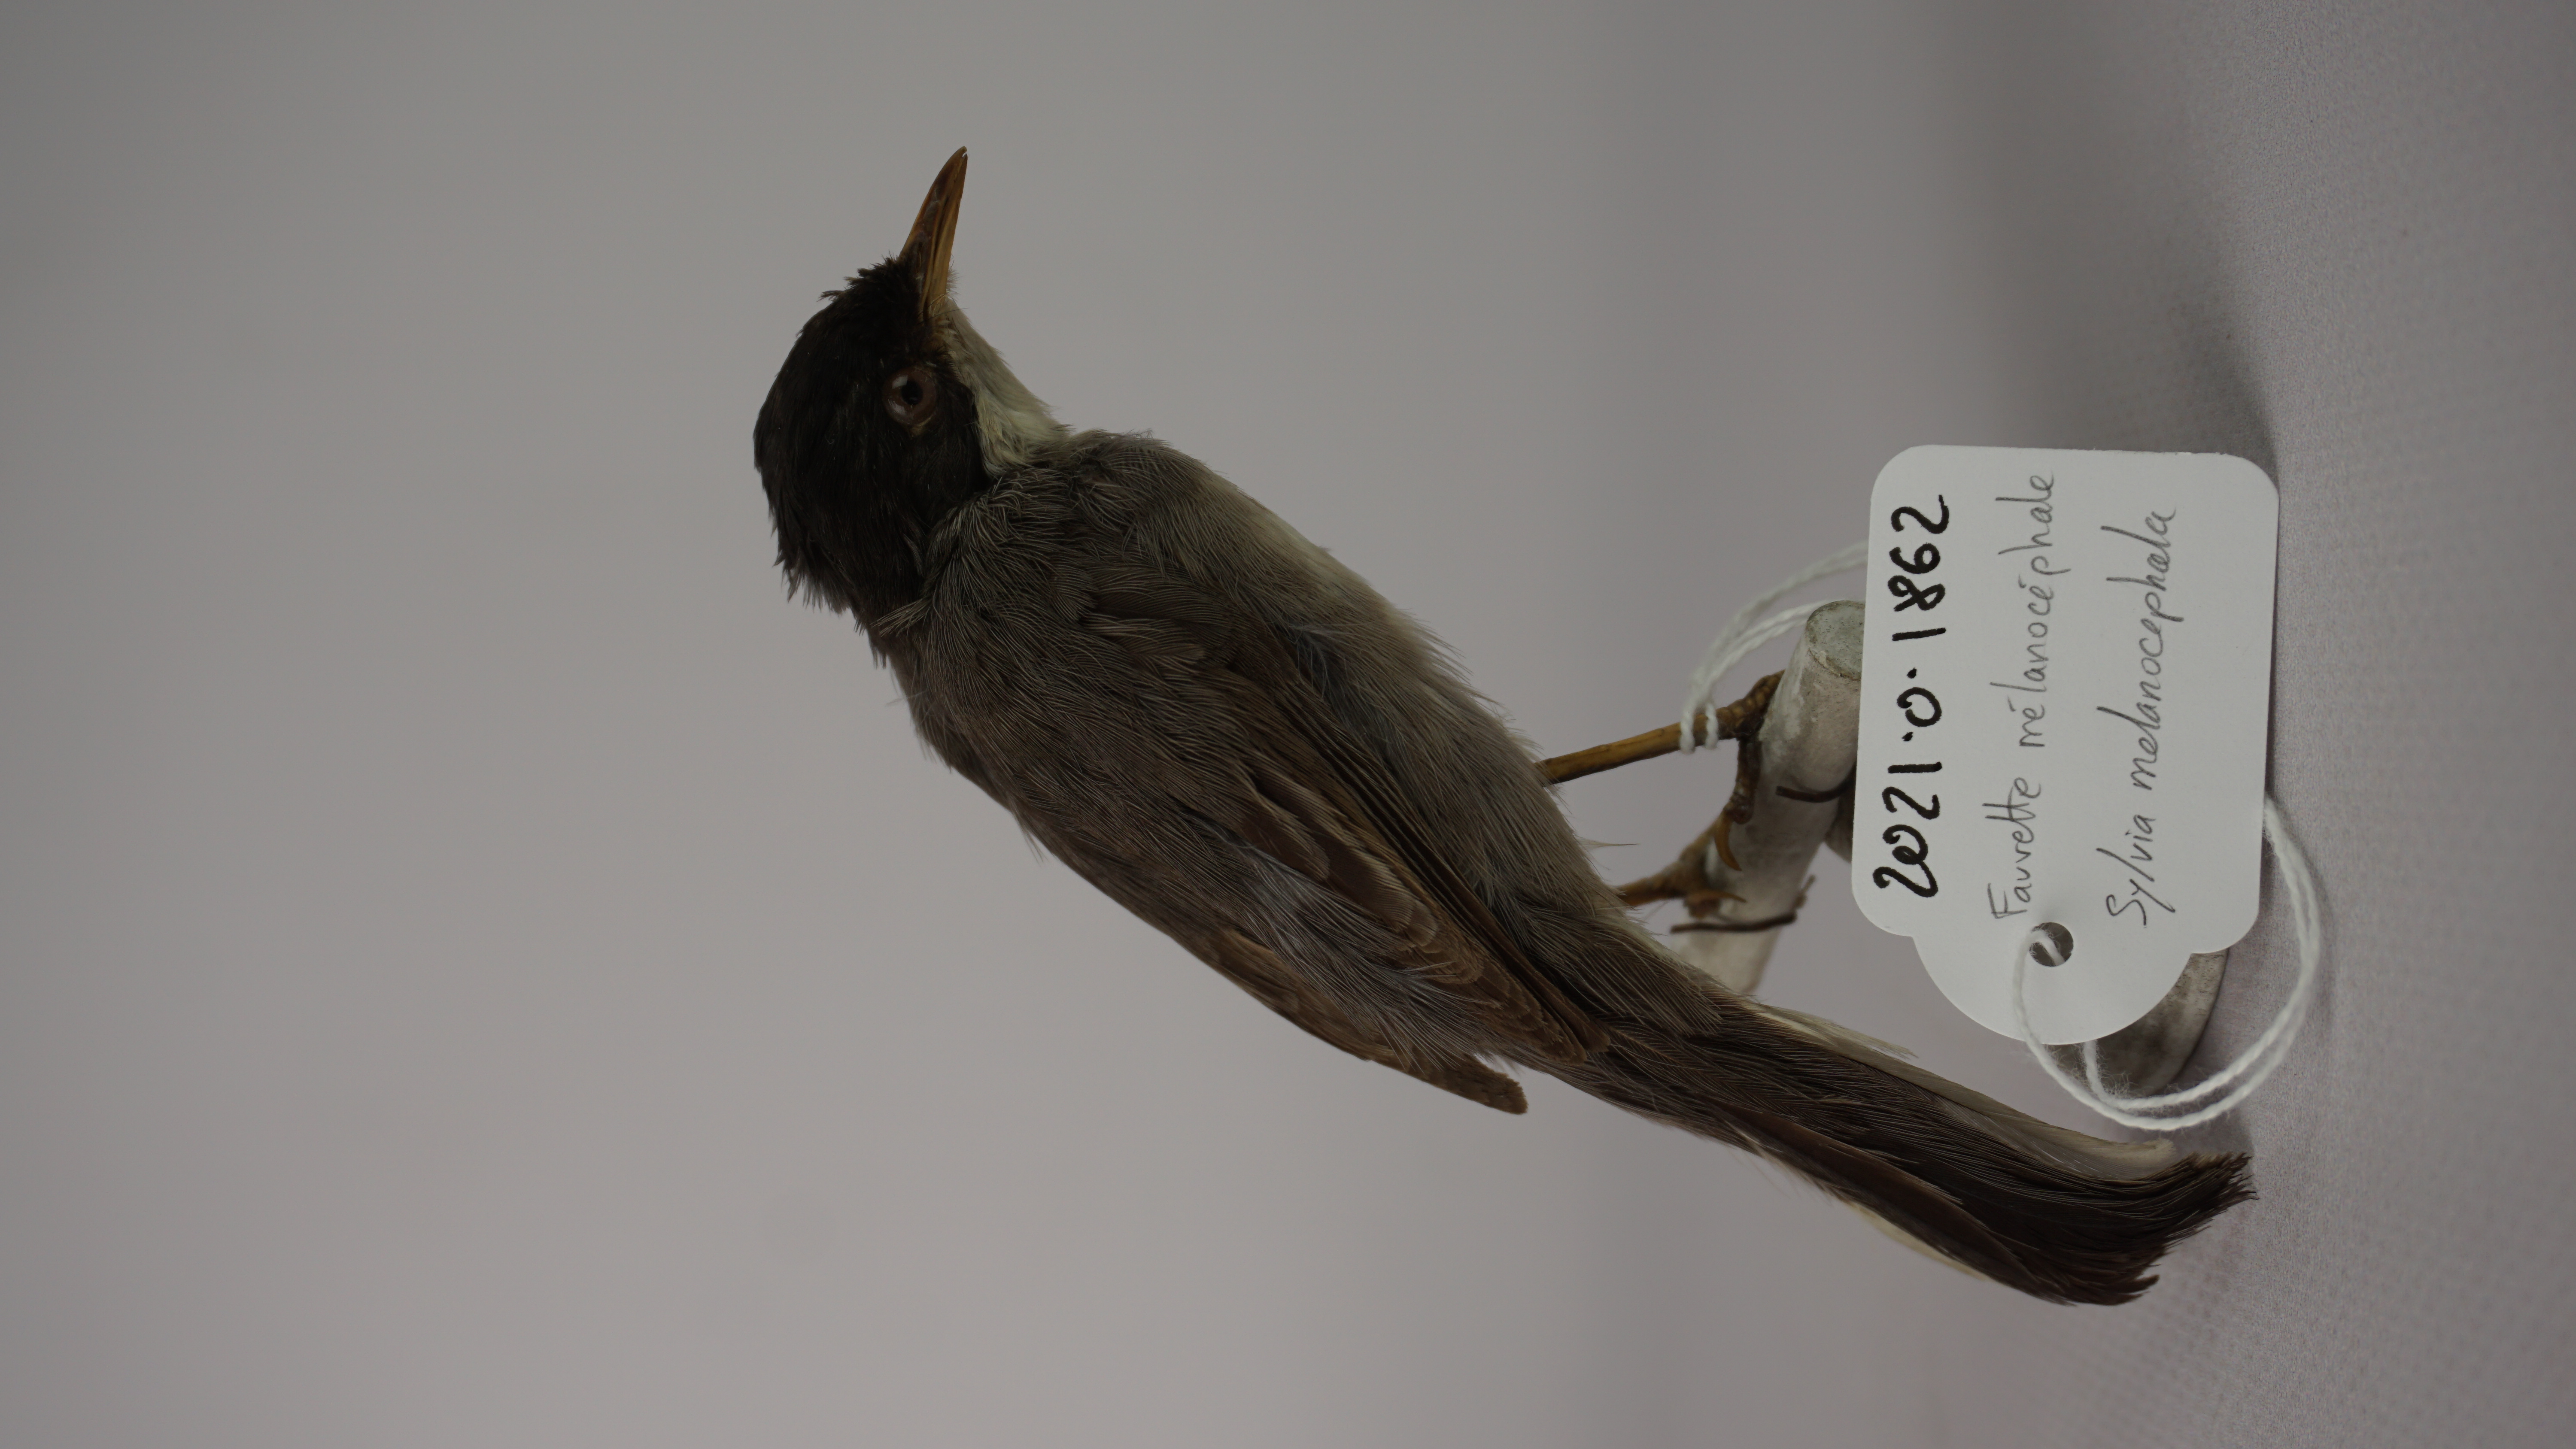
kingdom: Animalia
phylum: Chordata
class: Aves
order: Passeriformes
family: Sylviidae
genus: Sylvia
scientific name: Sylvia melanocephala
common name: Sardinian warbler
